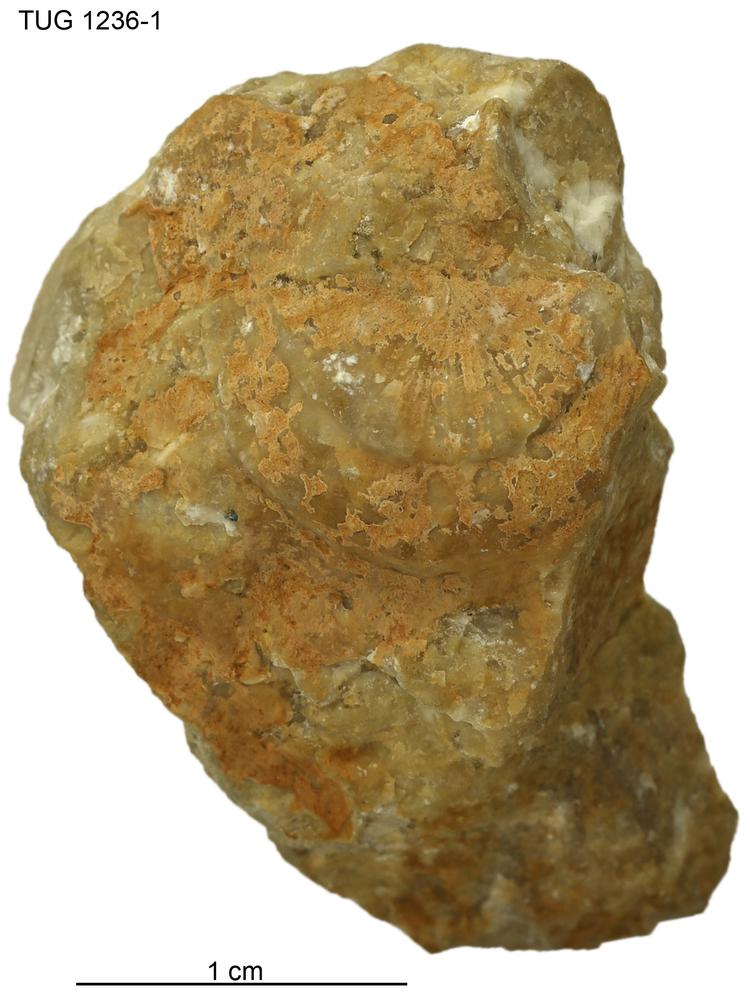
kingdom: Animalia
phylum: Brachiopoda
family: Strophomenidae
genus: Holtedahlina
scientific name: Holtedahlina
